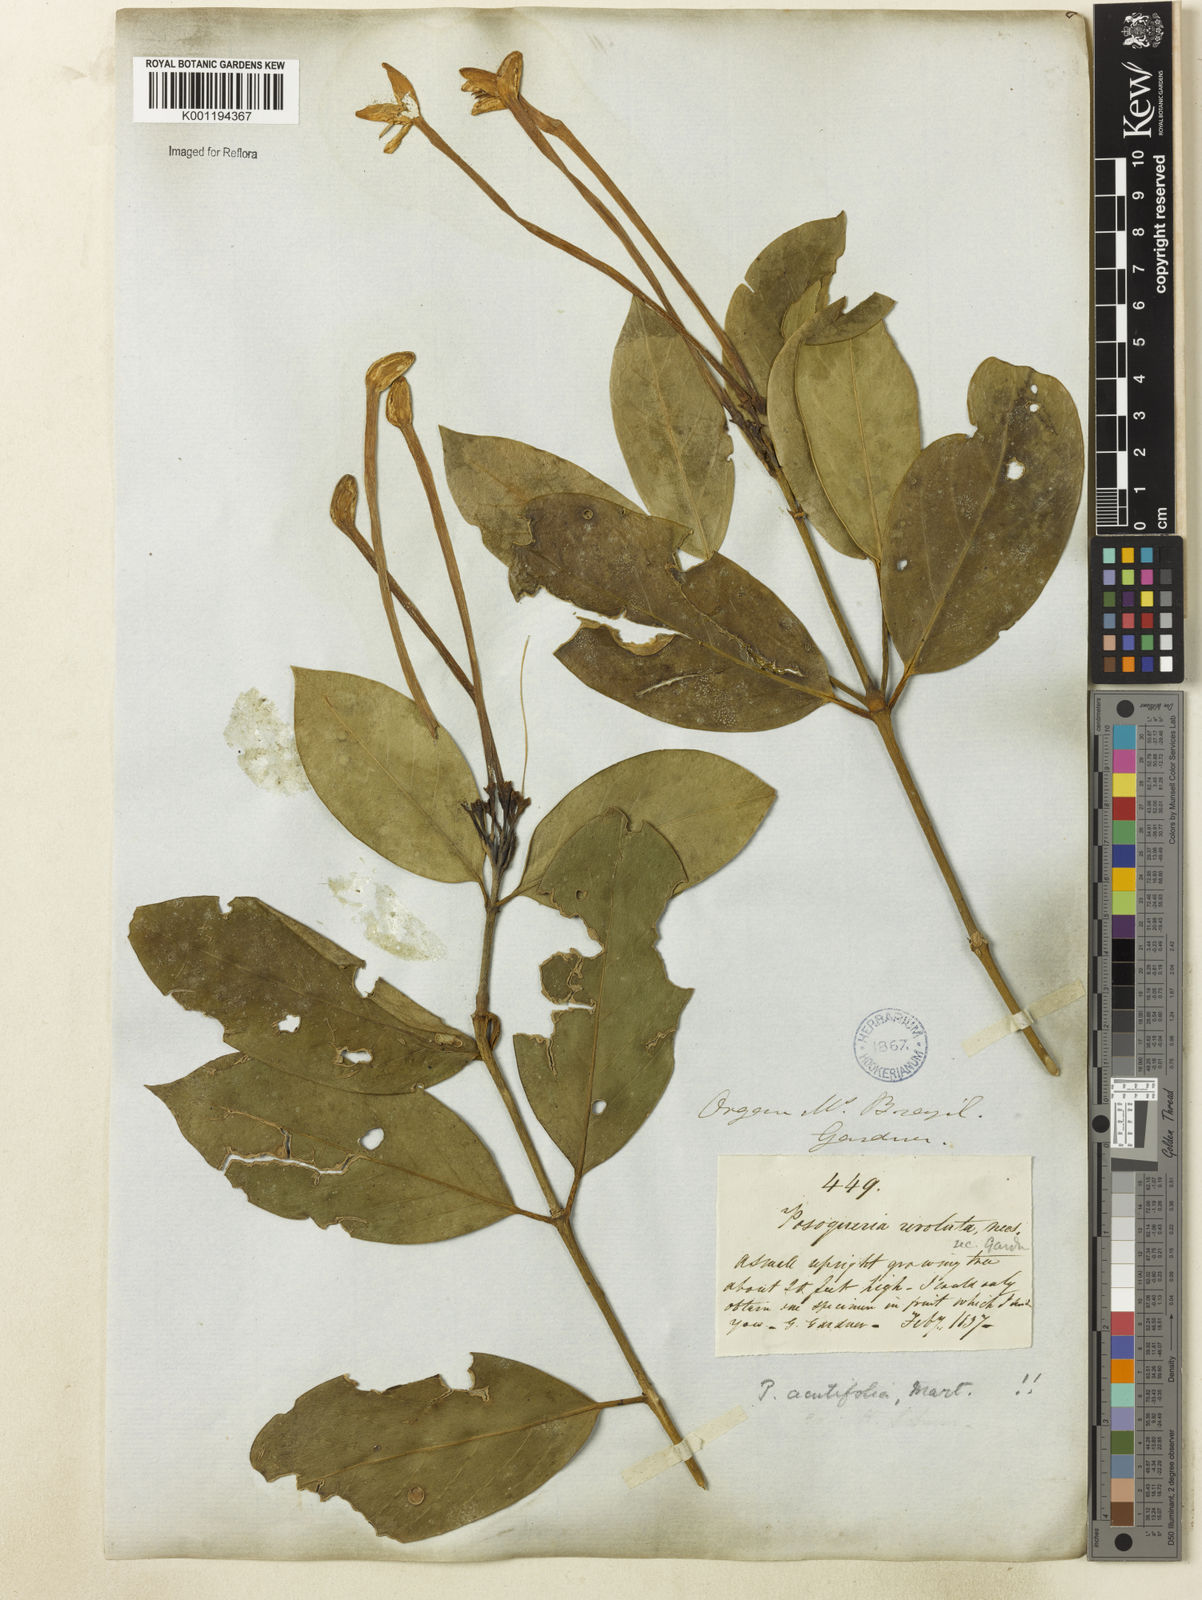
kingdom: Plantae
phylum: Tracheophyta
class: Magnoliopsida
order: Gentianales
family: Rubiaceae
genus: Posoqueria
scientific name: Posoqueria acutifolia
